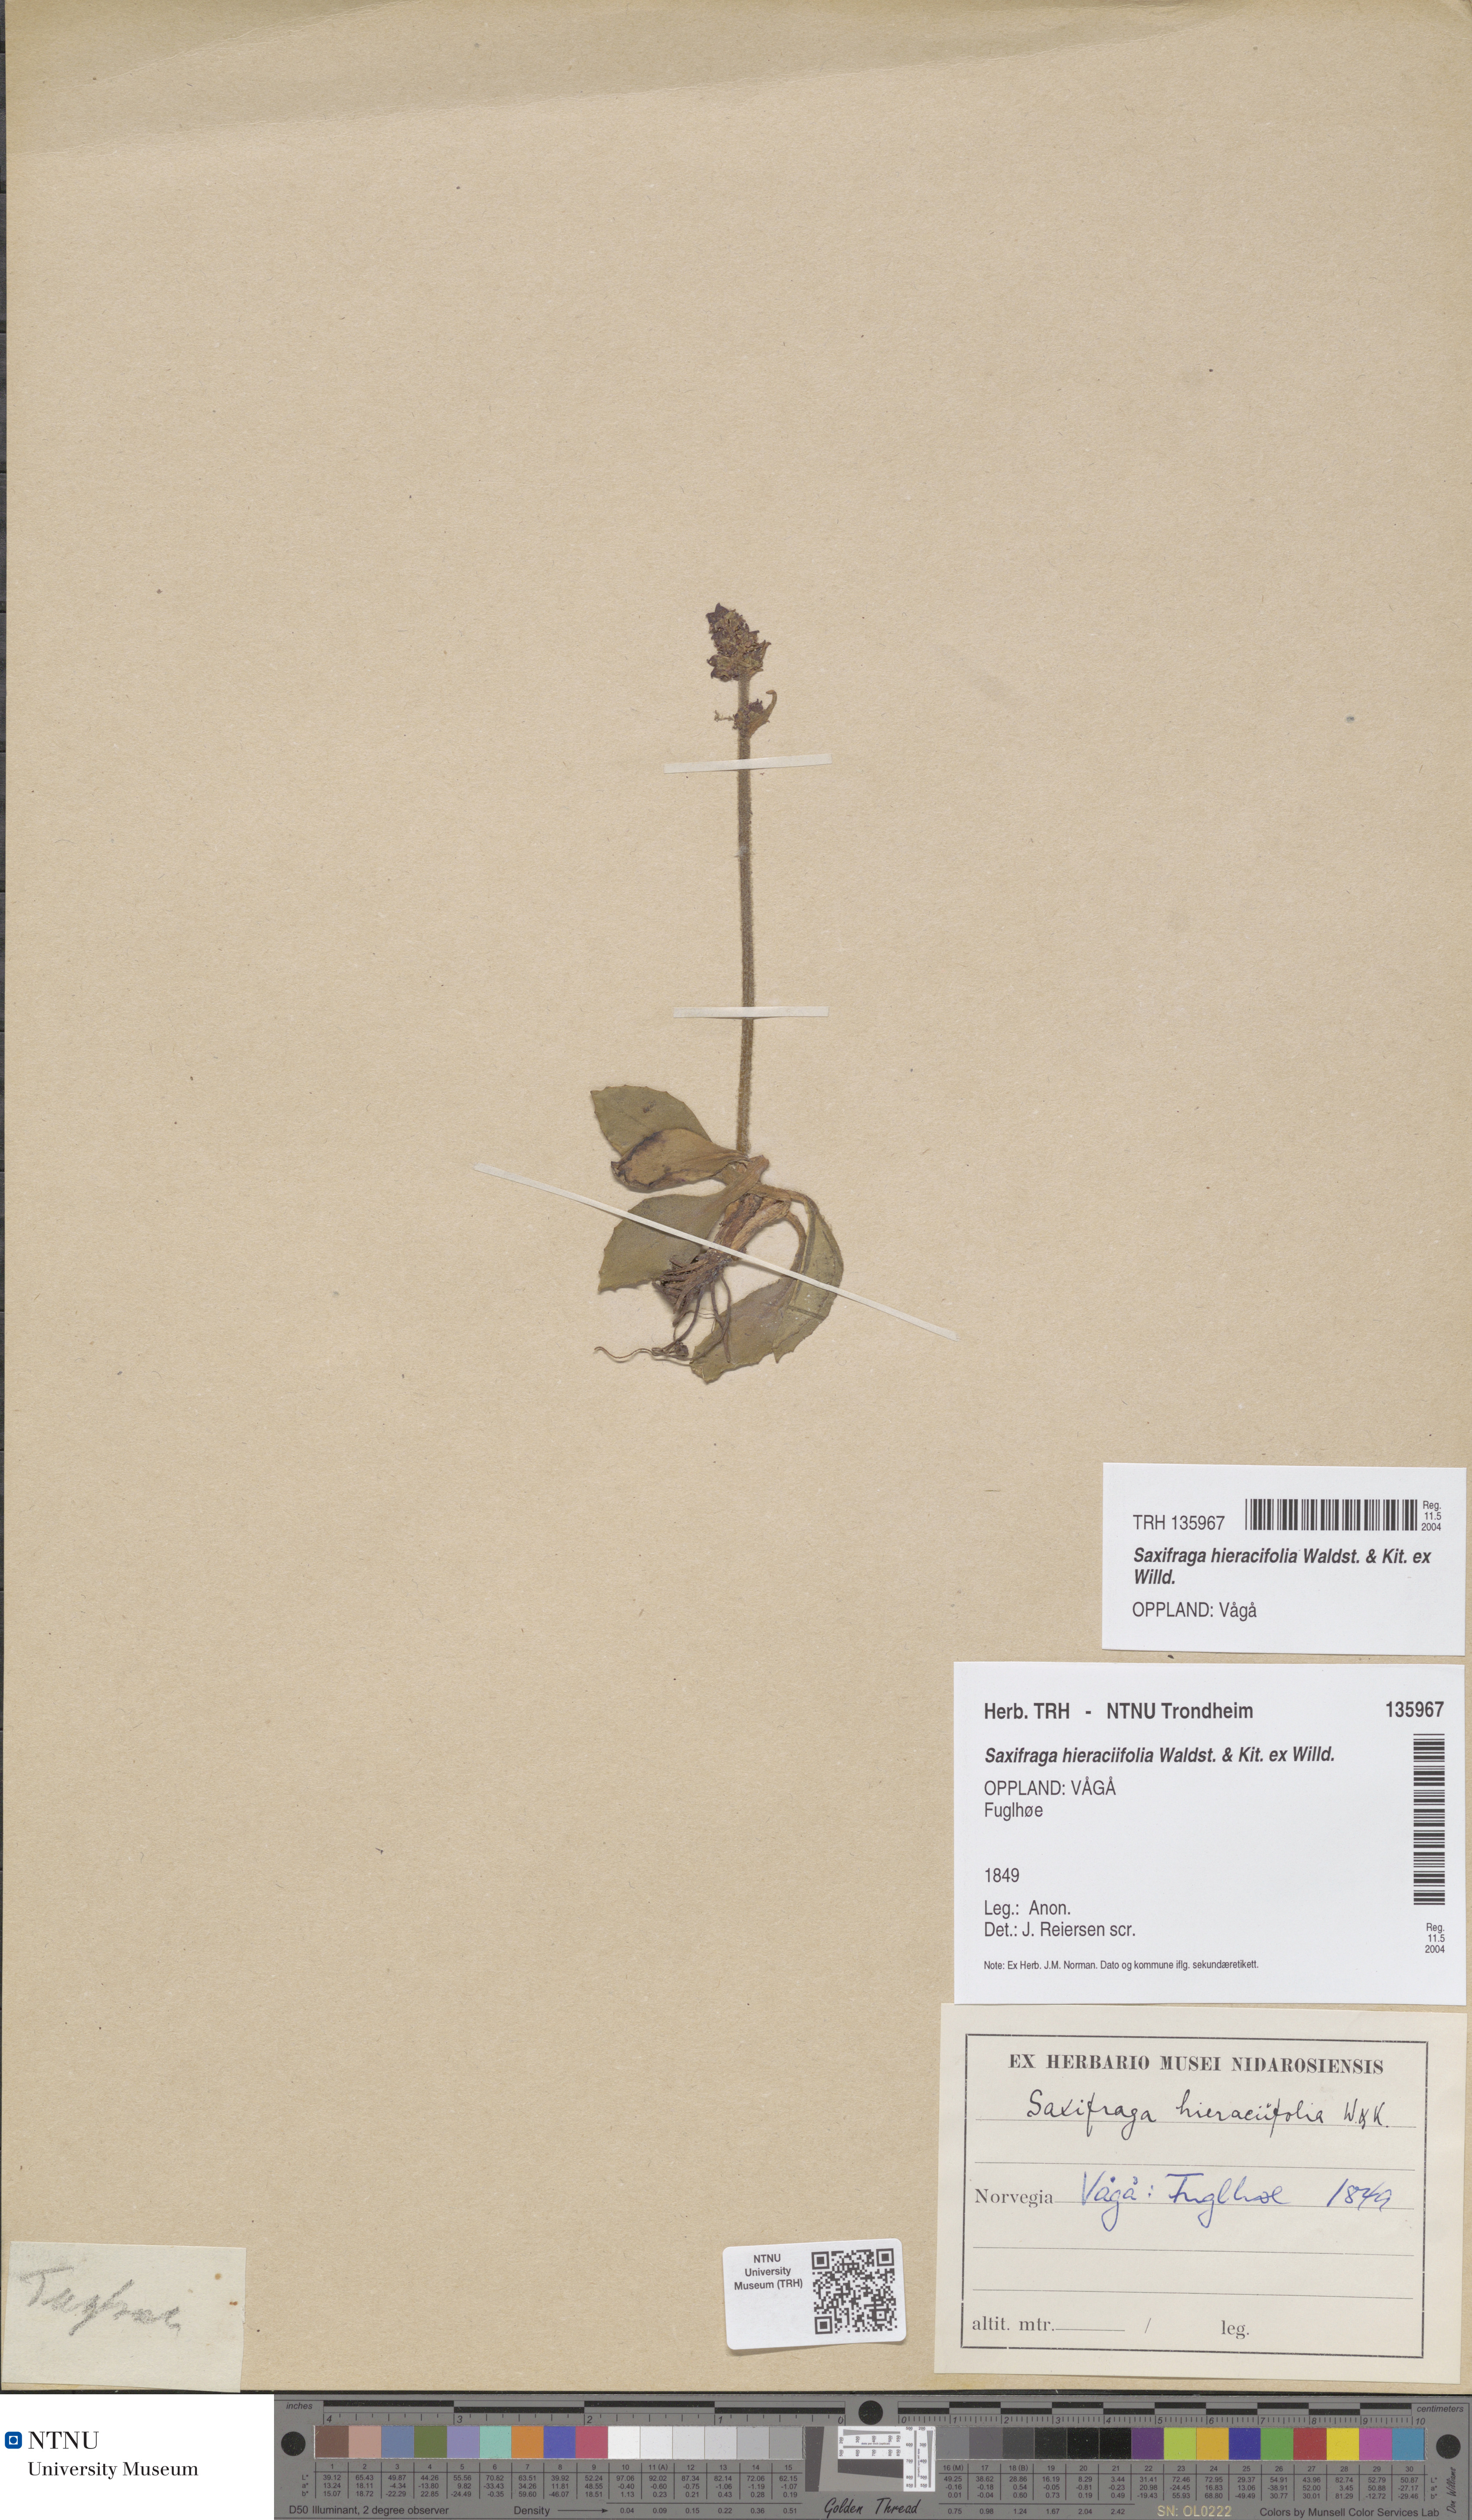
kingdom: Plantae
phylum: Tracheophyta
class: Magnoliopsida
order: Saxifragales
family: Saxifragaceae
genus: Micranthes
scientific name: Micranthes hieraciifolia
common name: Hawkweed-leaved saxifrage
